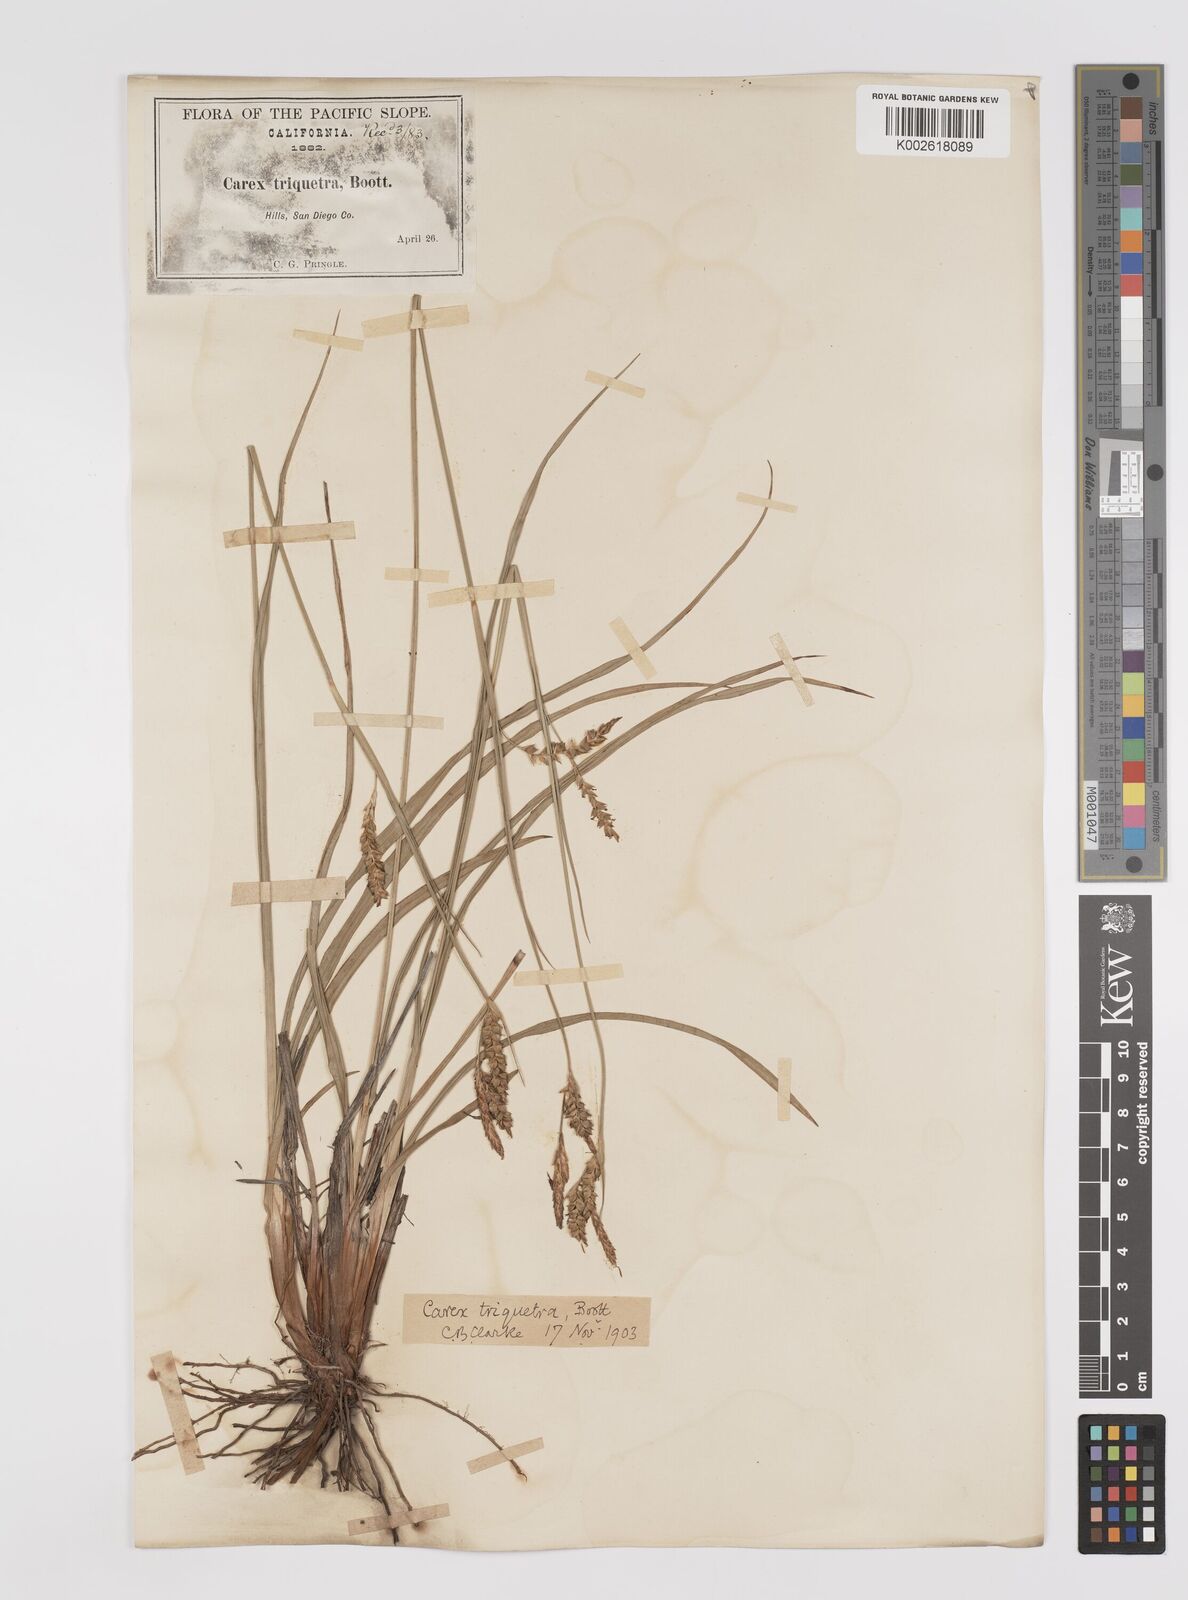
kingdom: Plantae
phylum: Tracheophyta
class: Liliopsida
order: Poales
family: Cyperaceae
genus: Carex
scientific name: Carex triquetra
